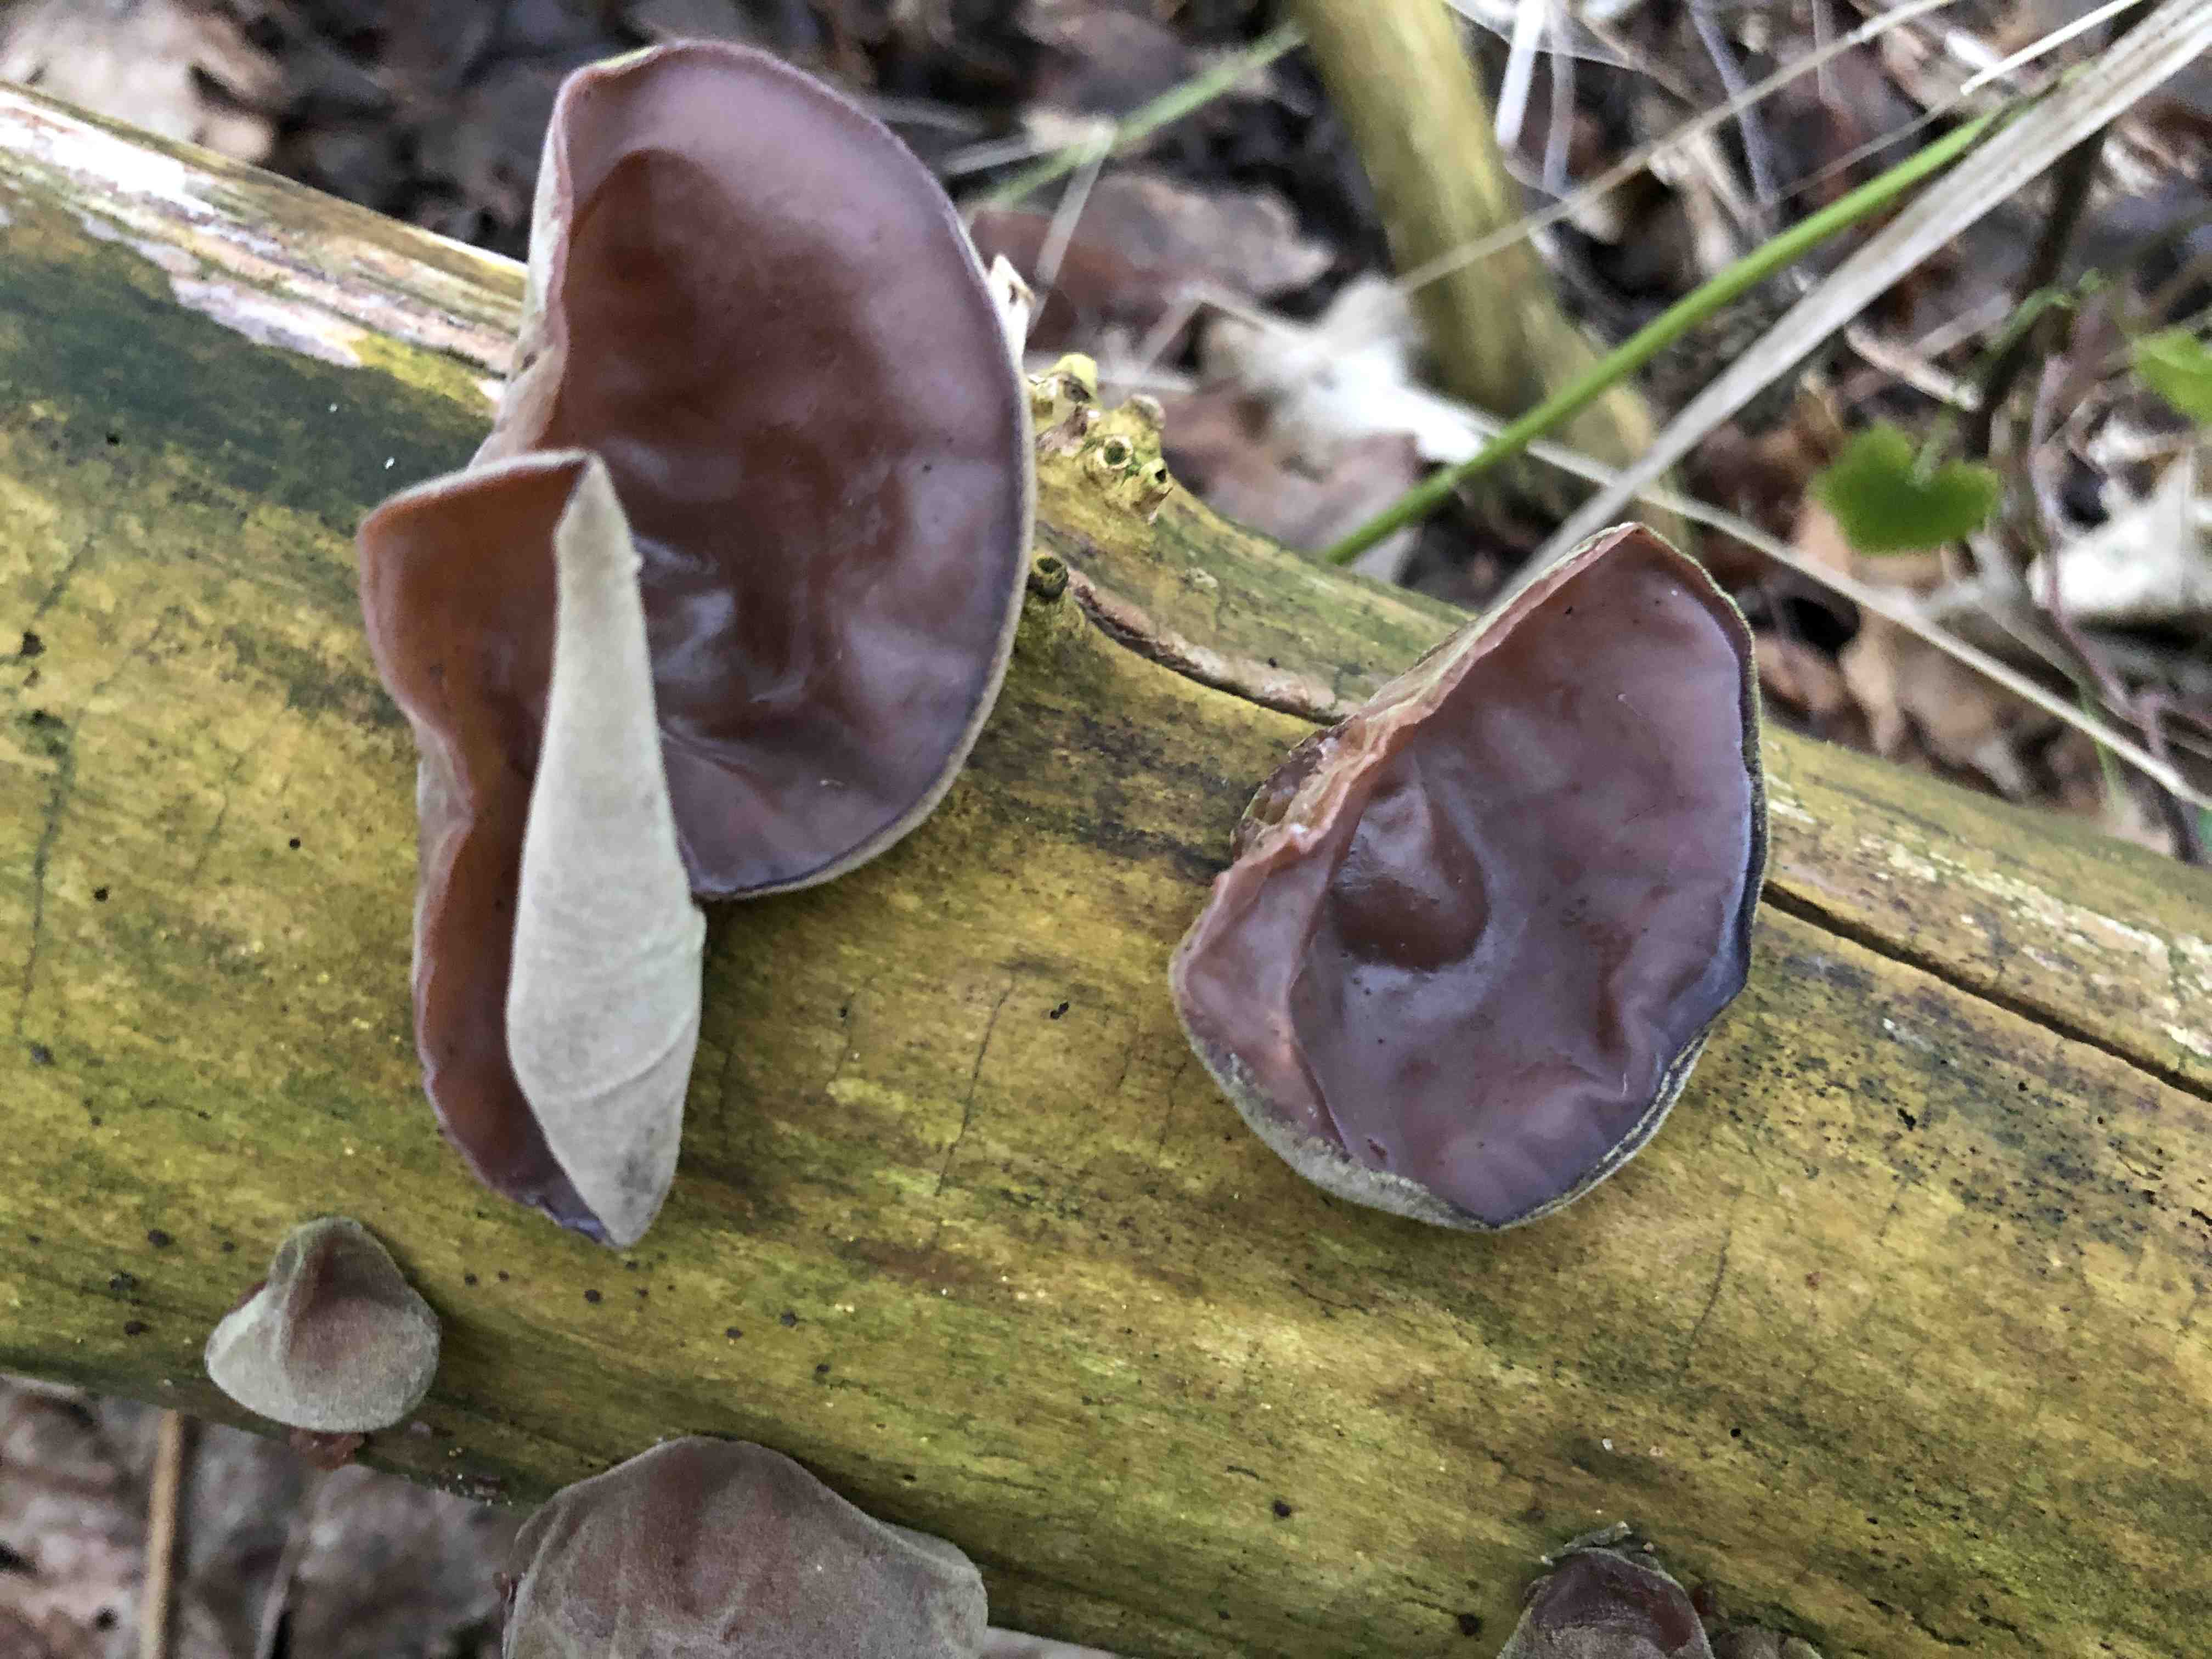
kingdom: Fungi
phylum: Basidiomycota
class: Agaricomycetes
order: Auriculariales
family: Auriculariaceae
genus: Auricularia
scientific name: Auricularia auricula-judae
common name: almindelig judasøre
